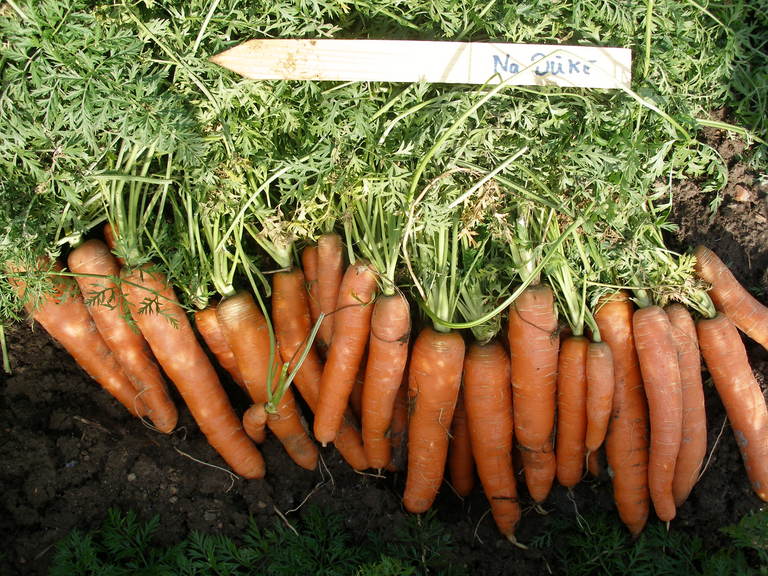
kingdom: Plantae
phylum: Tracheophyta
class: Magnoliopsida
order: Apiales
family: Apiaceae
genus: Daucus
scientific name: Daucus carota
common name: Wild carrot
